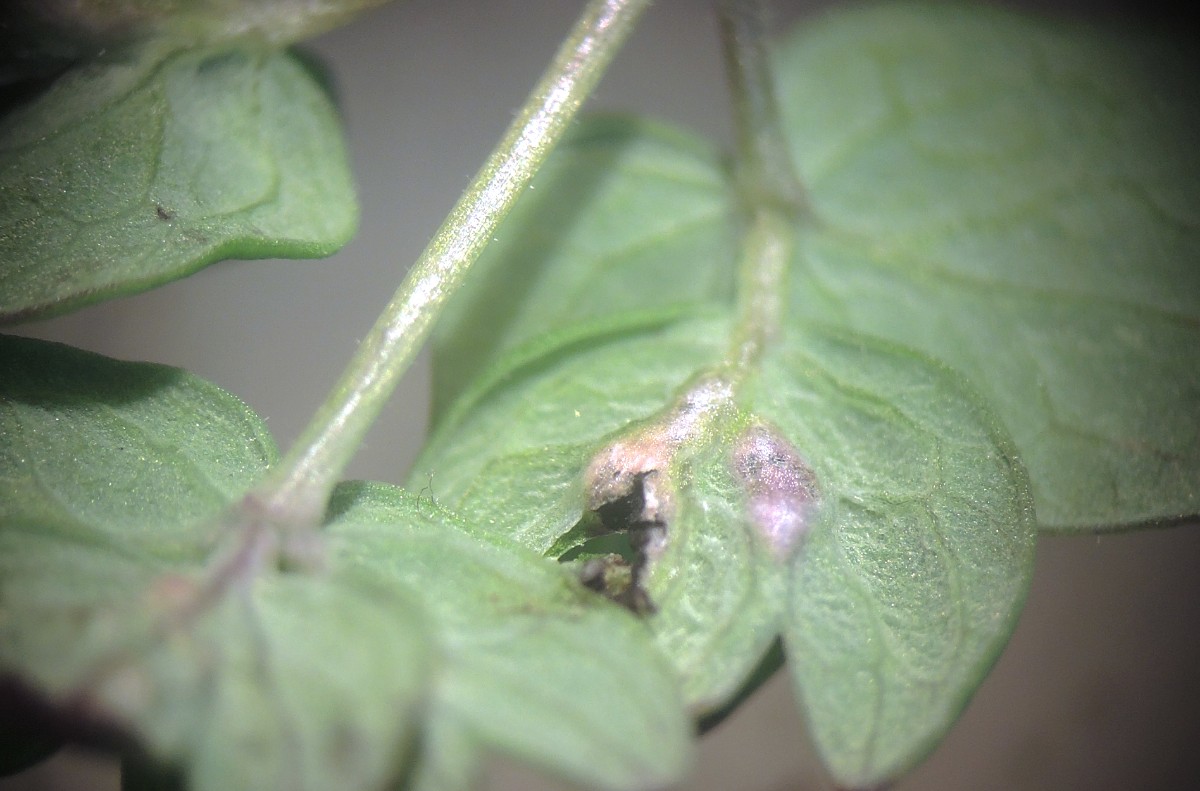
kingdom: Fungi
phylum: Basidiomycota
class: Ustilaginomycetes
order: Urocystidales
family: Urocystidaceae
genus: Urocystis
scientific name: Urocystis sorosporioides
